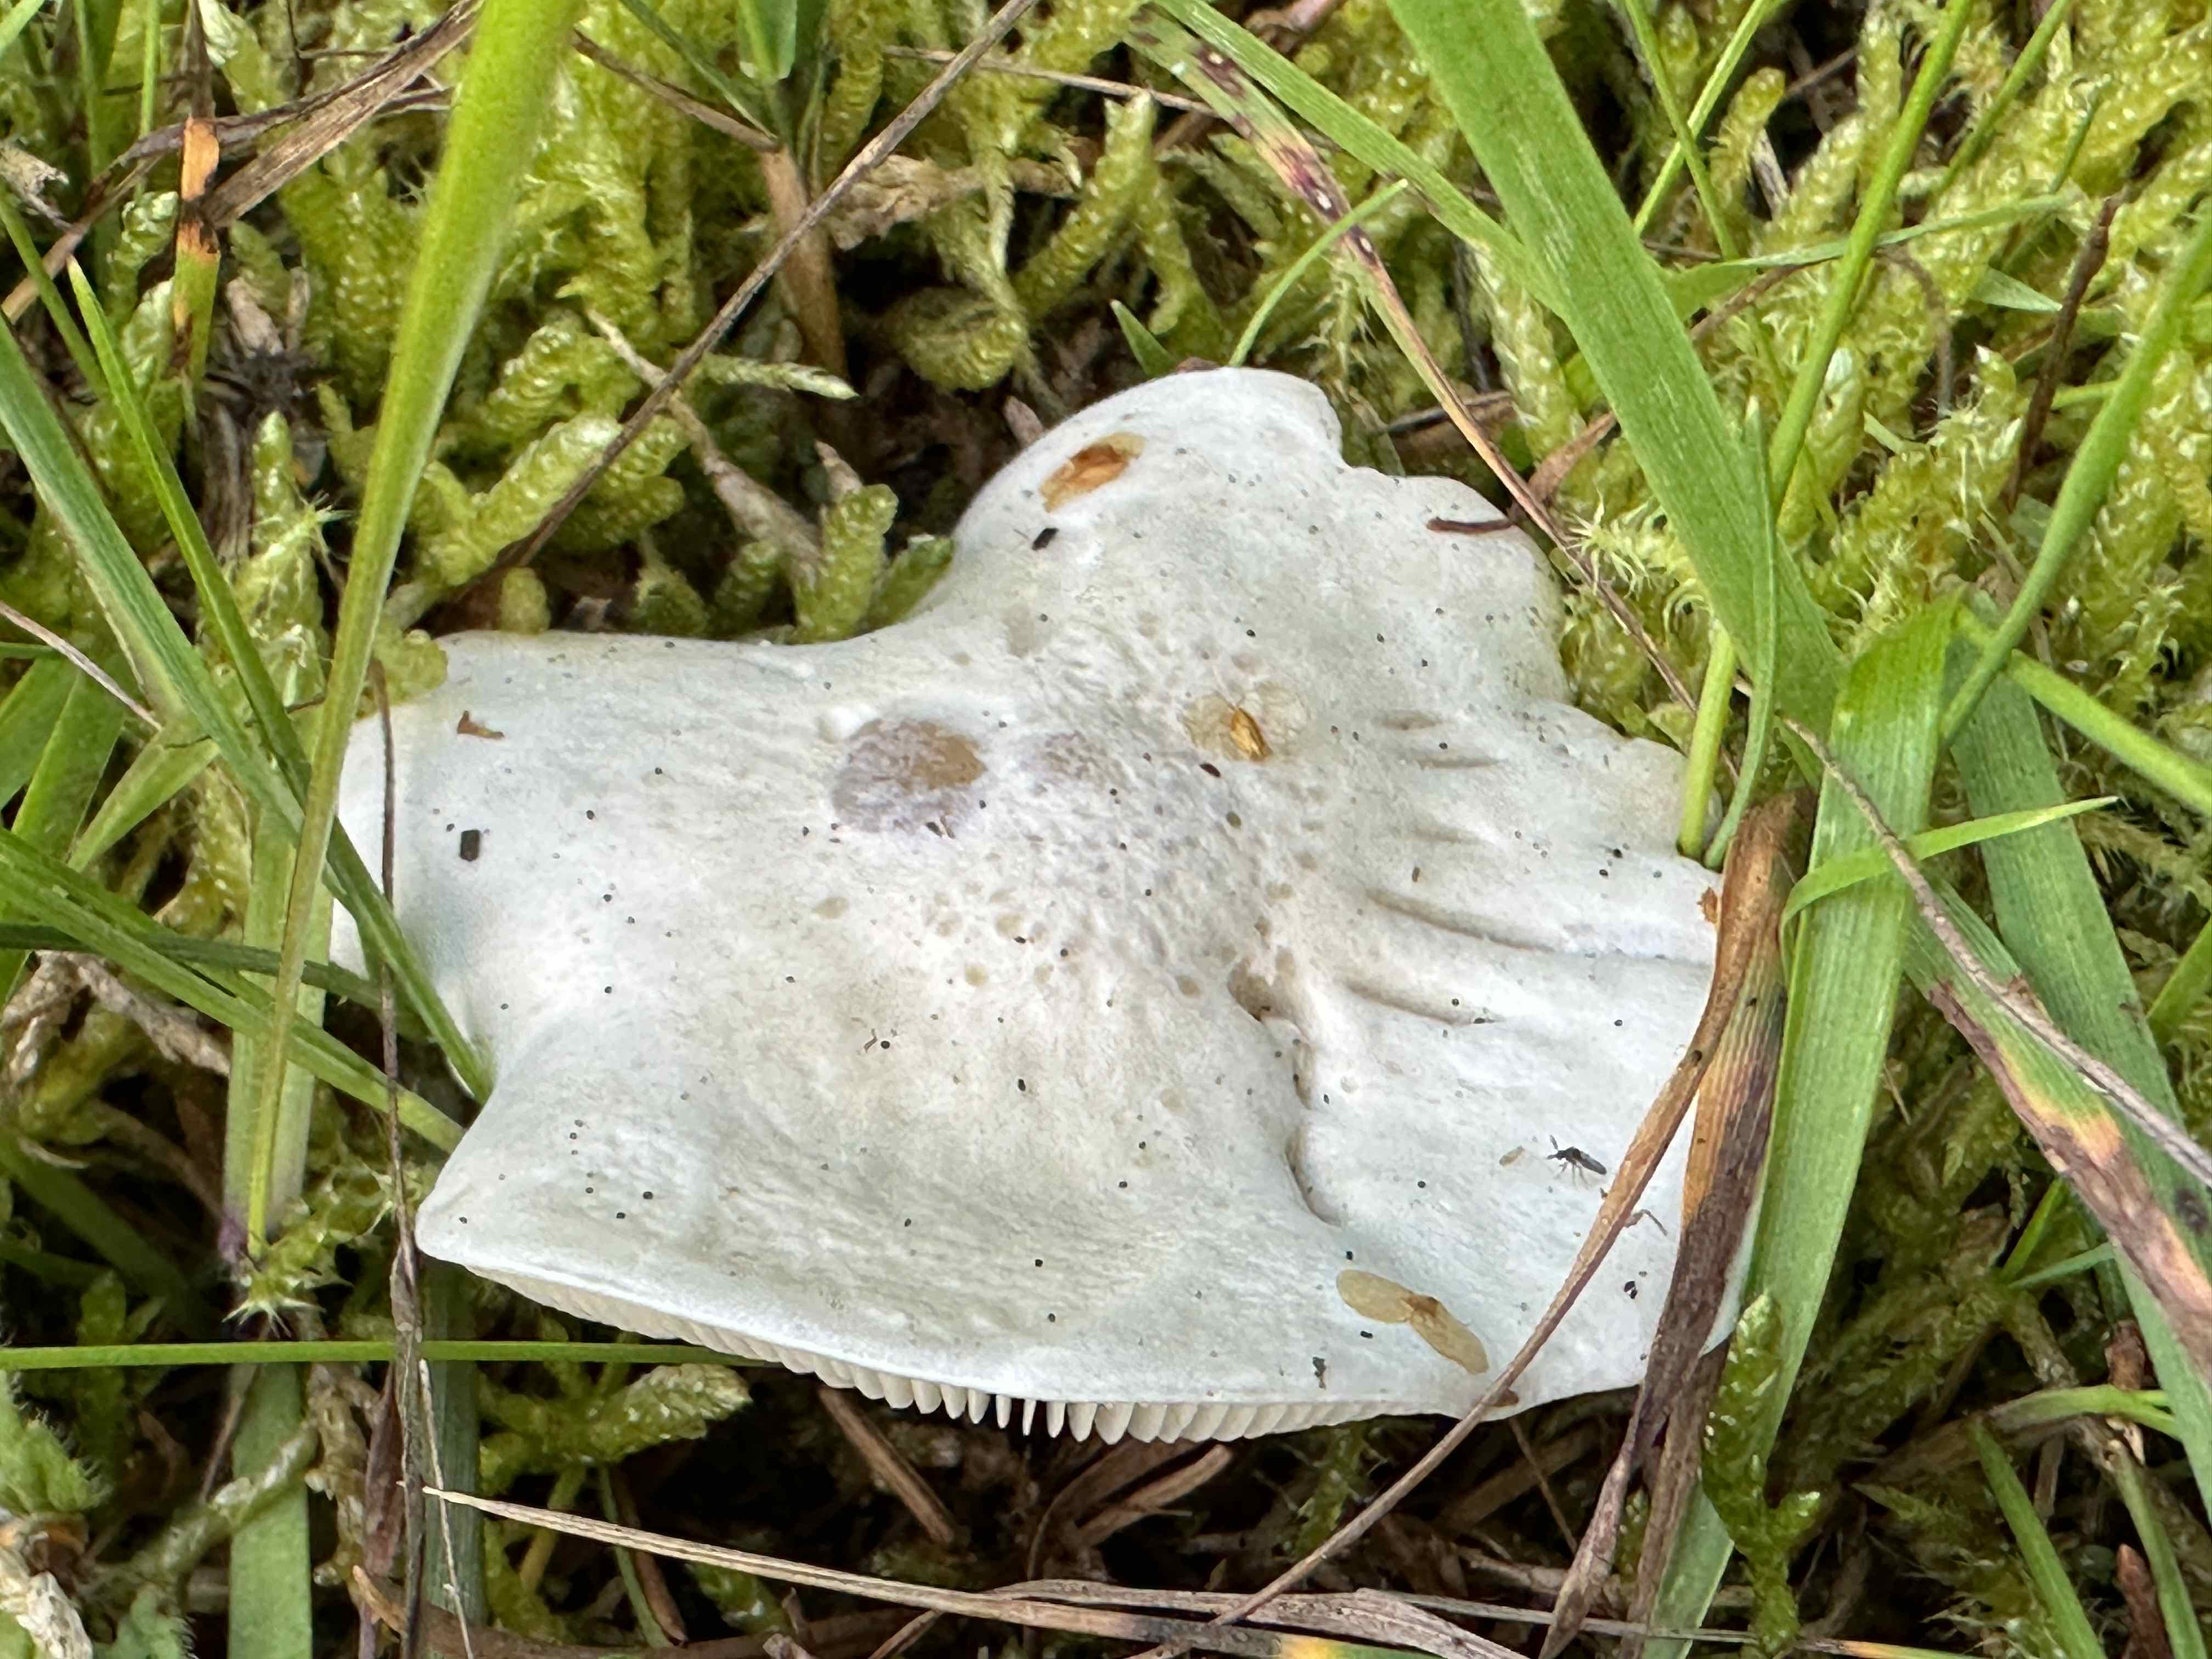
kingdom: Fungi
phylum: Basidiomycota
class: Agaricomycetes
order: Agaricales
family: Entolomataceae
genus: Clitopilus
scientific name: Clitopilus prunulus
